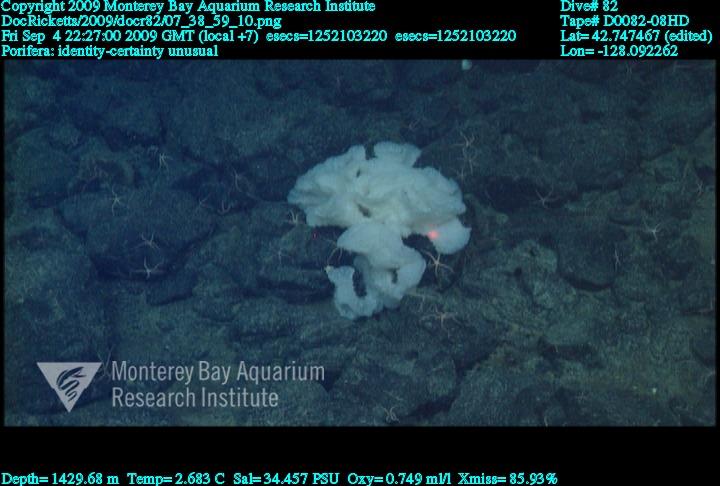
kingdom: Animalia
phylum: Porifera
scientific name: Porifera
